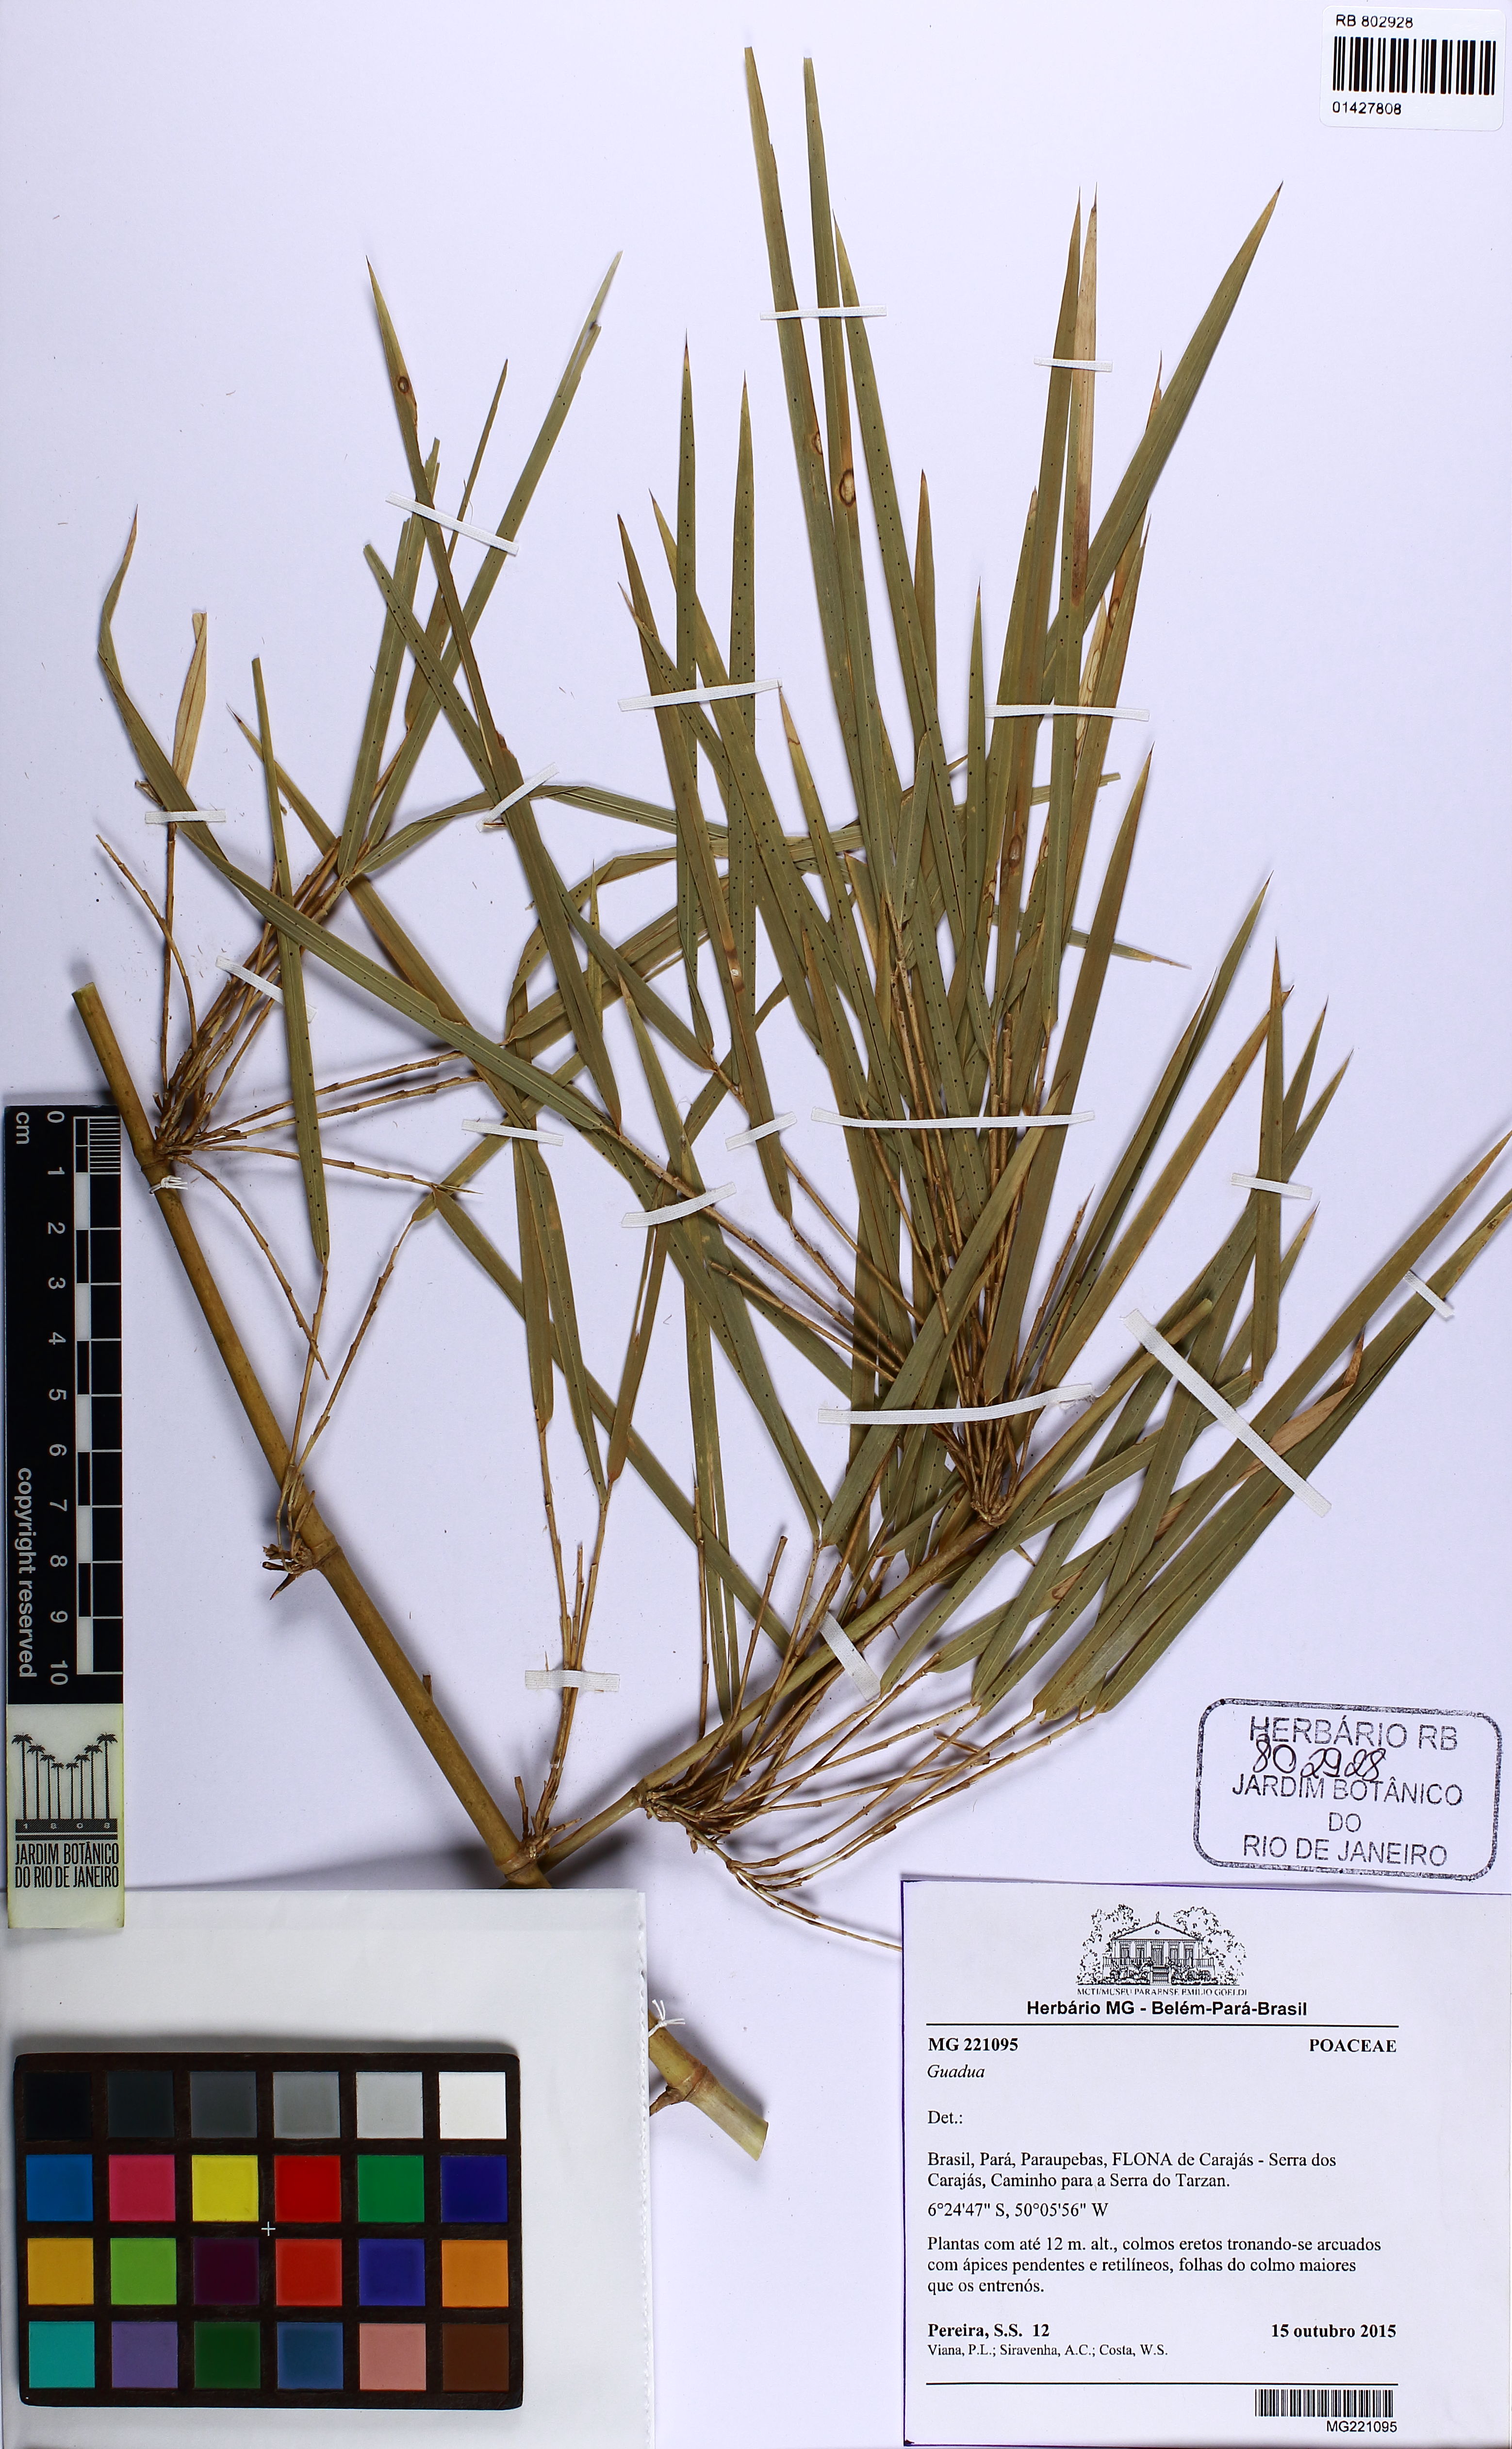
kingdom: Plantae
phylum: Tracheophyta
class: Liliopsida
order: Poales
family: Poaceae
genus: Guadua
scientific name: Guadua superba
